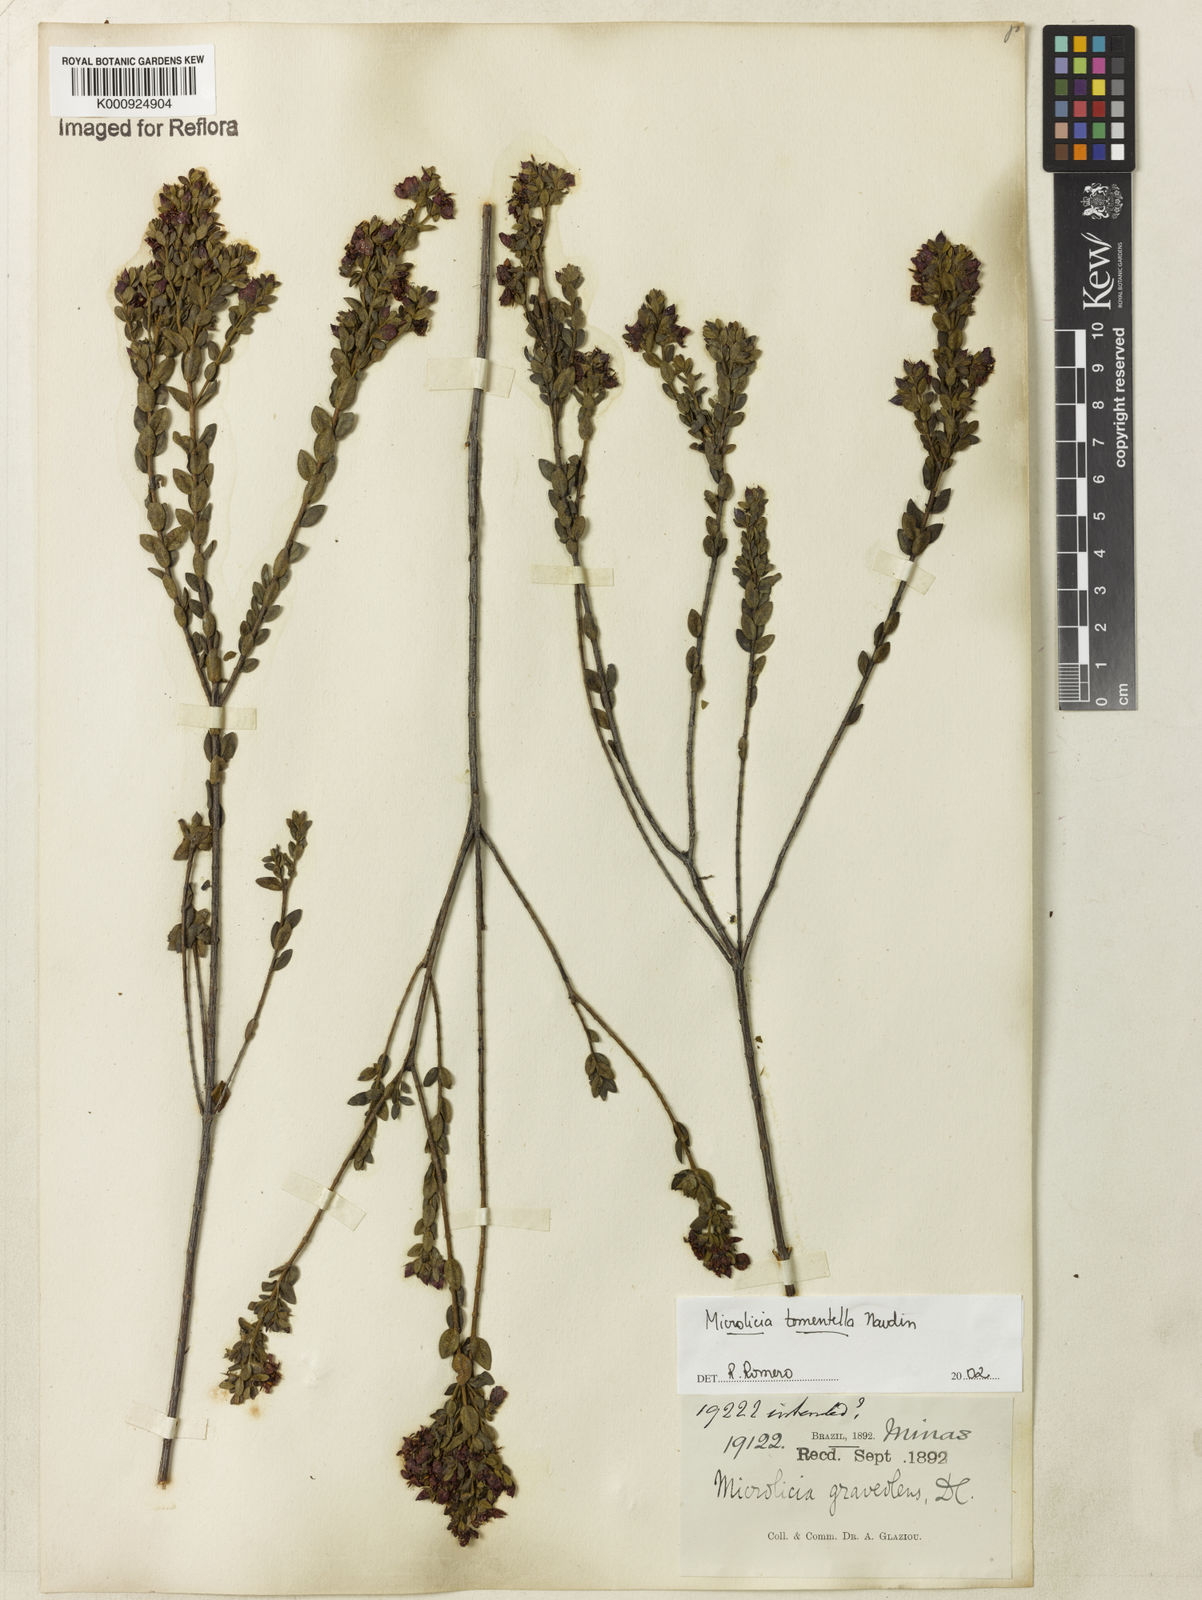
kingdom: Plantae
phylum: Tracheophyta
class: Magnoliopsida
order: Myrtales
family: Melastomataceae
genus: Microlicia
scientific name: Microlicia tomentella
